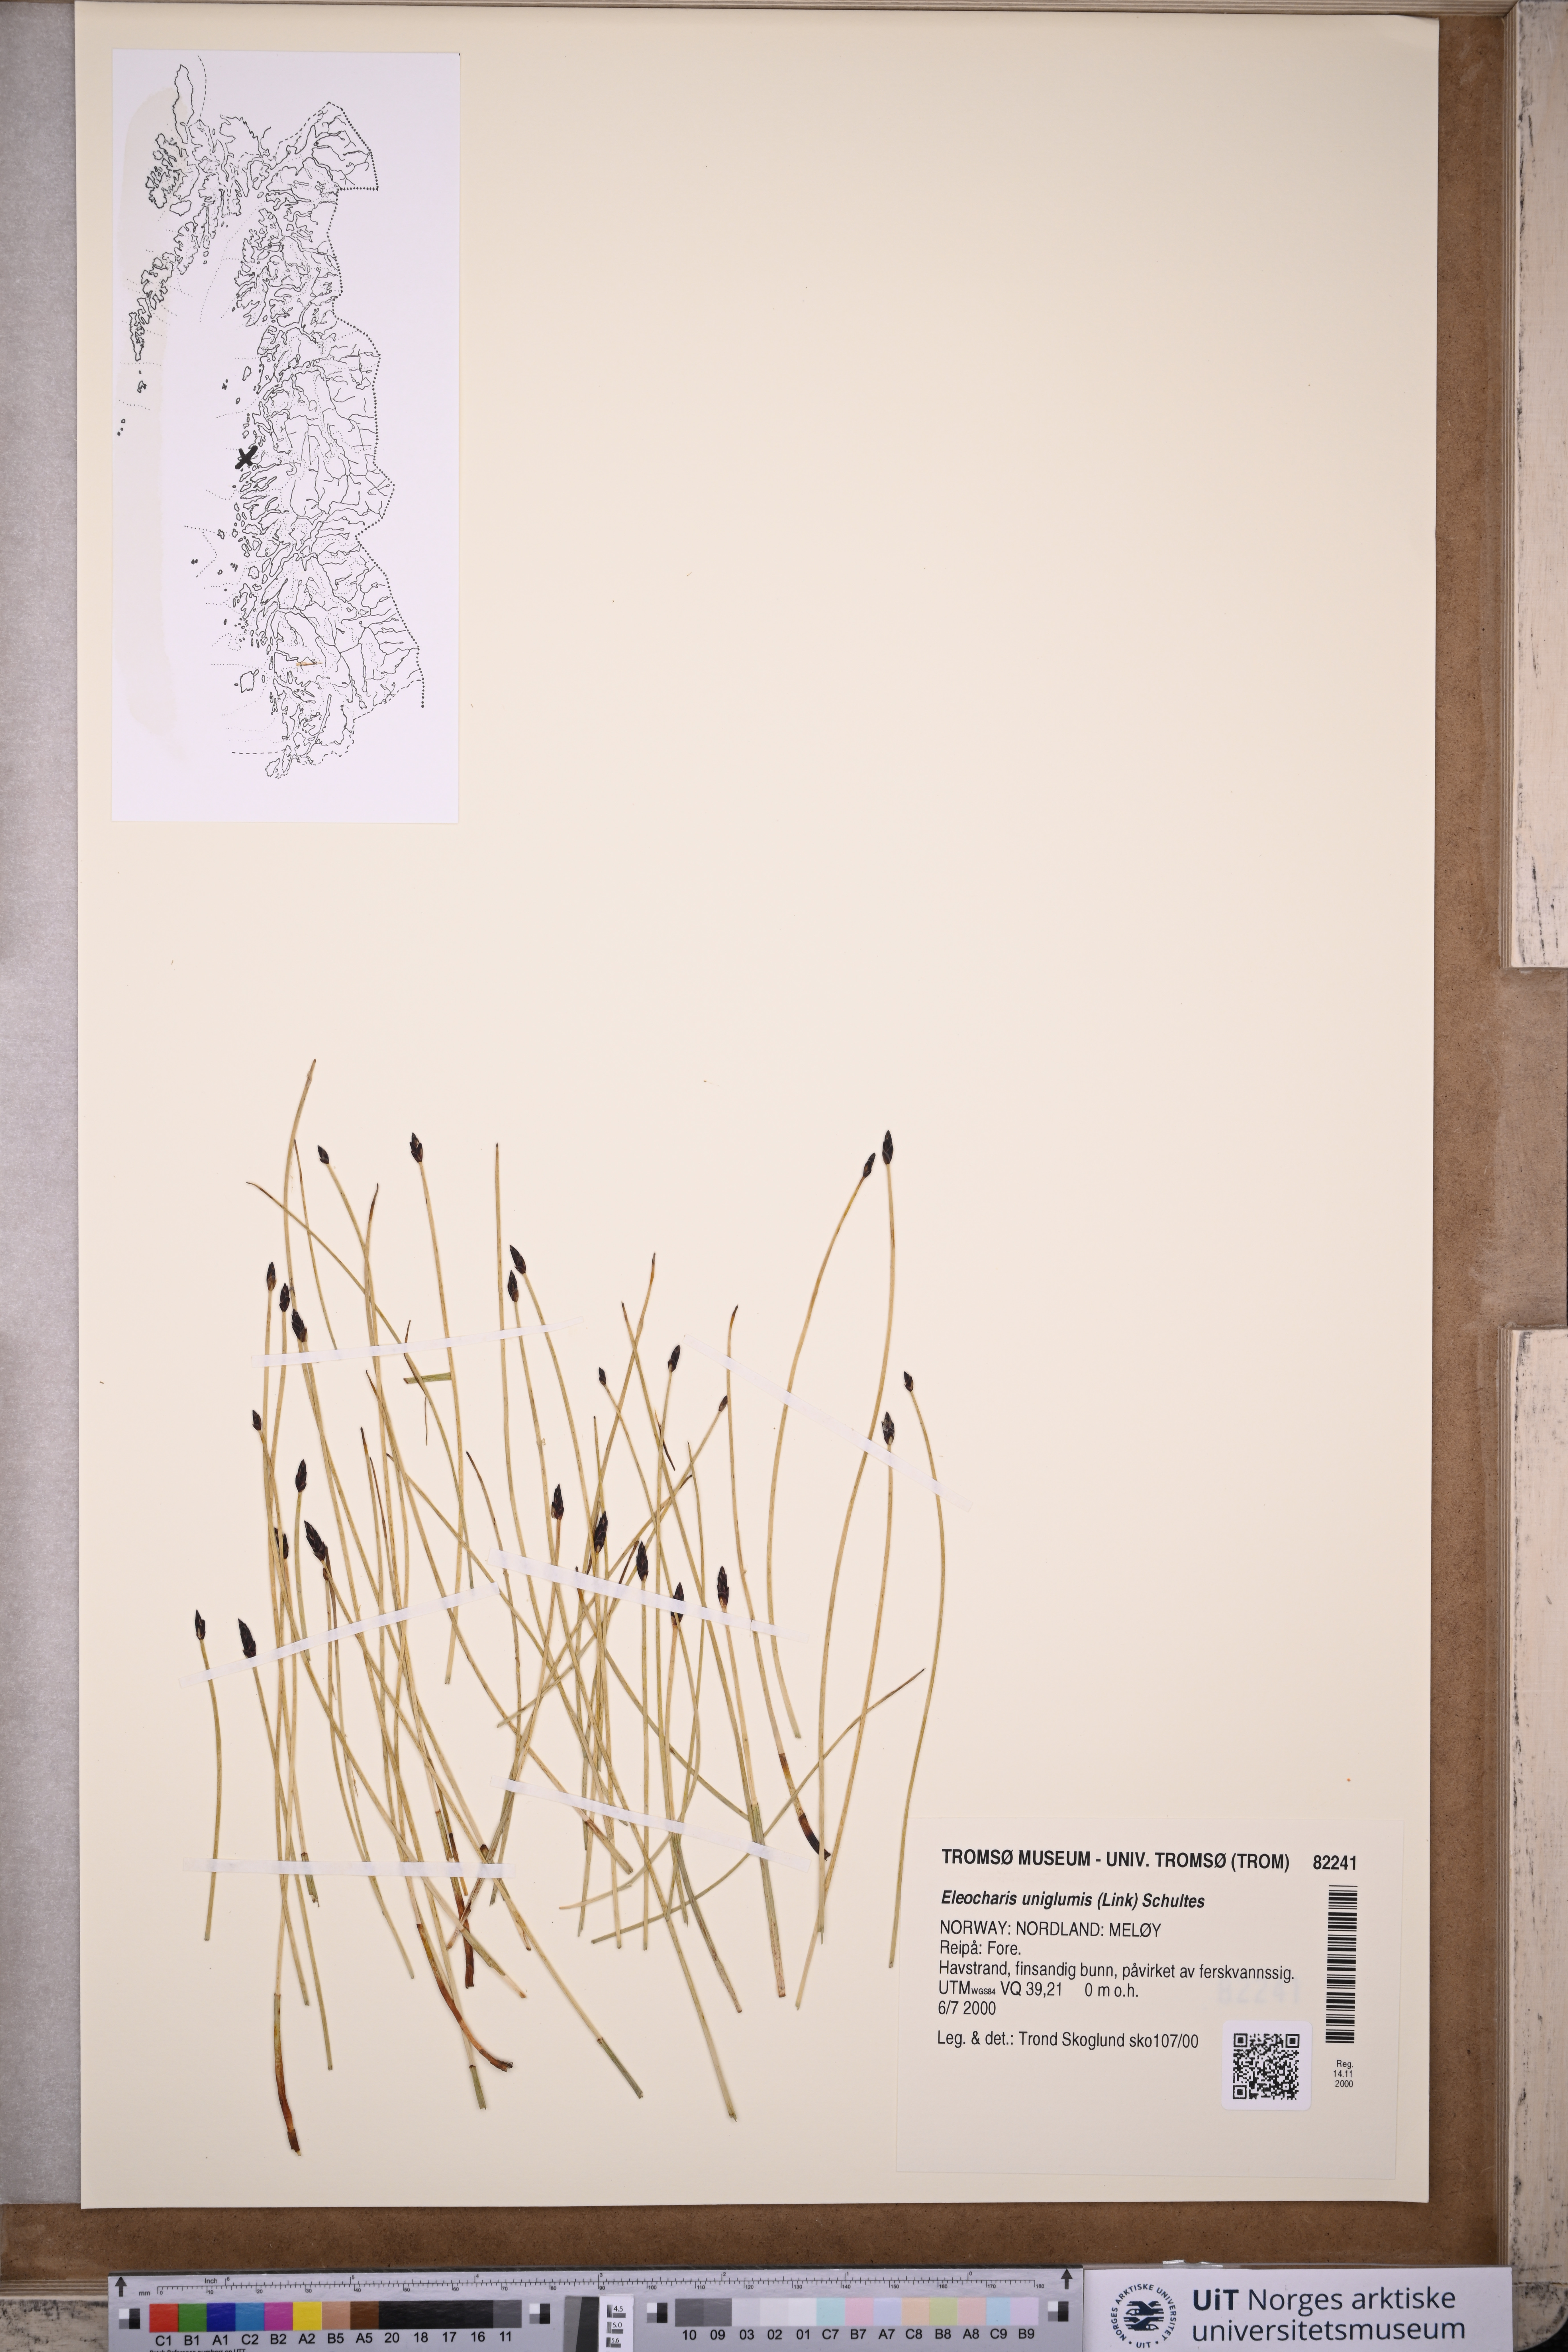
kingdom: Plantae
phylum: Tracheophyta
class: Liliopsida
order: Poales
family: Cyperaceae
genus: Eleocharis
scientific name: Eleocharis uniglumis
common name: Slender spike-rush
